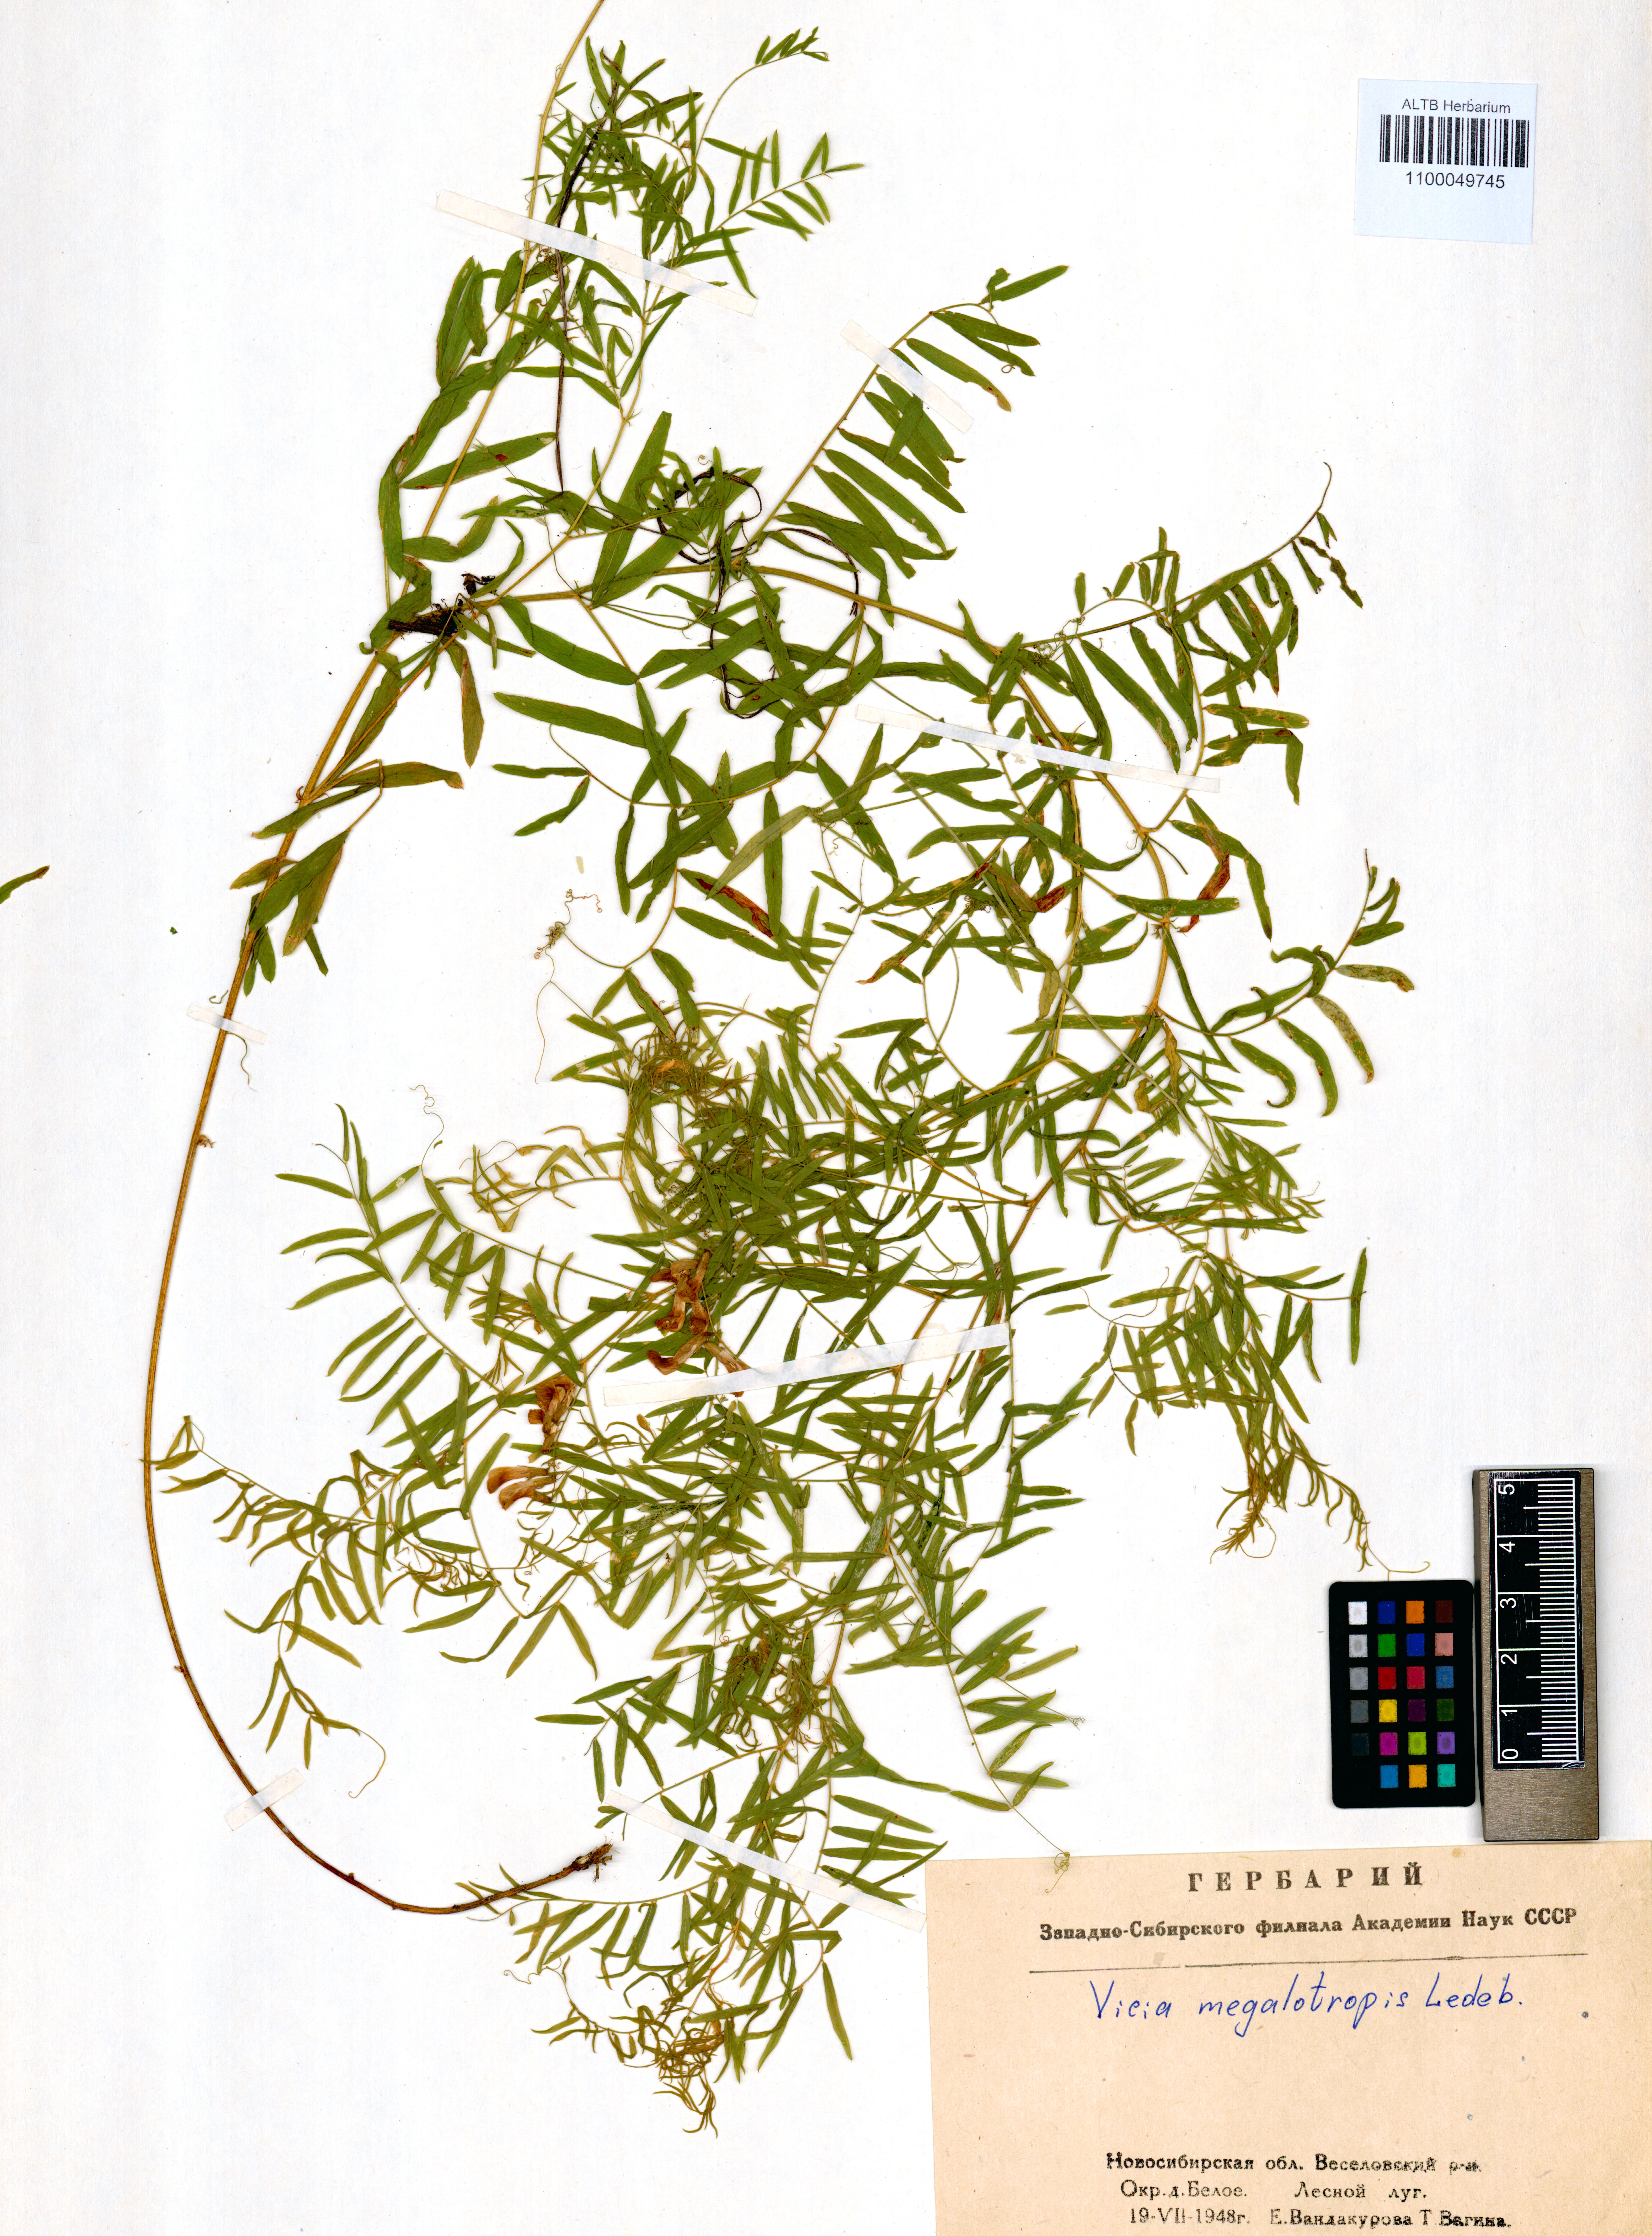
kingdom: Plantae
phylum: Tracheophyta
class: Magnoliopsida
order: Fabales
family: Fabaceae
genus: Vicia
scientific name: Vicia megalotropis
